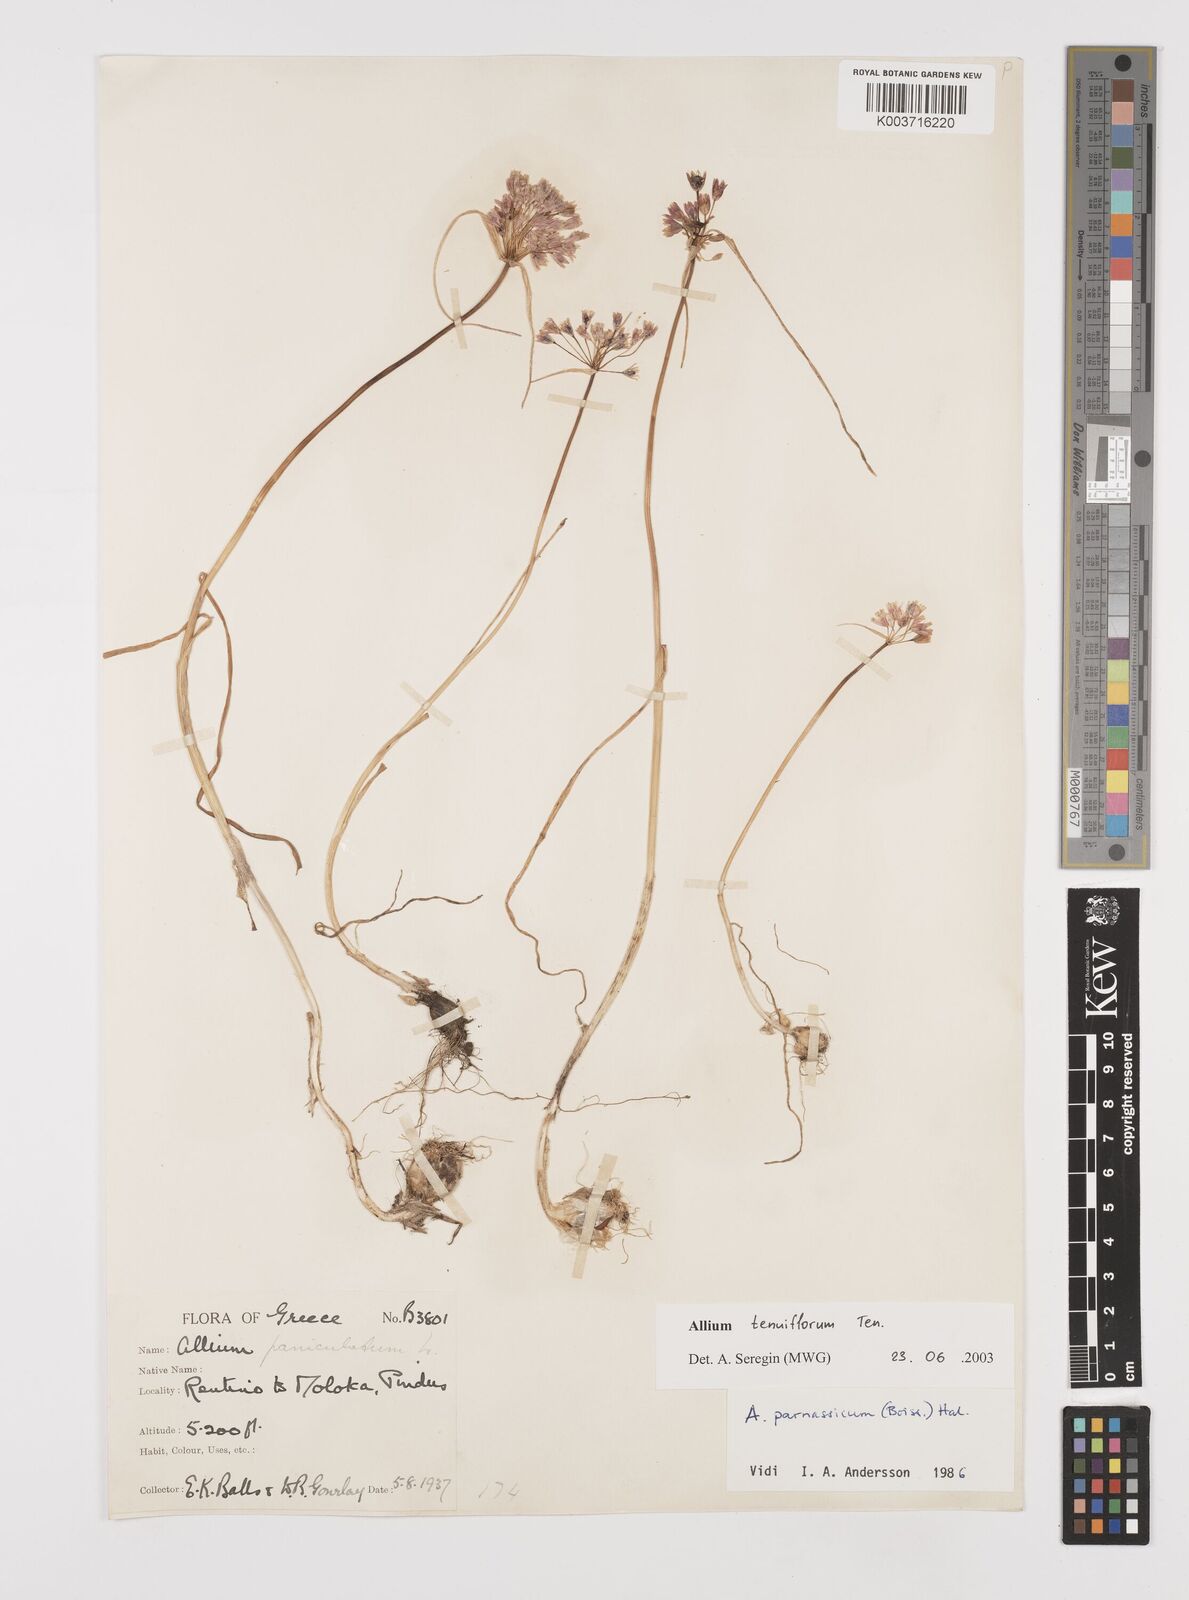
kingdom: Plantae
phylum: Tracheophyta
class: Liliopsida
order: Asparagales
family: Amaryllidaceae
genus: Allium
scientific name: Allium tenuiflorum
